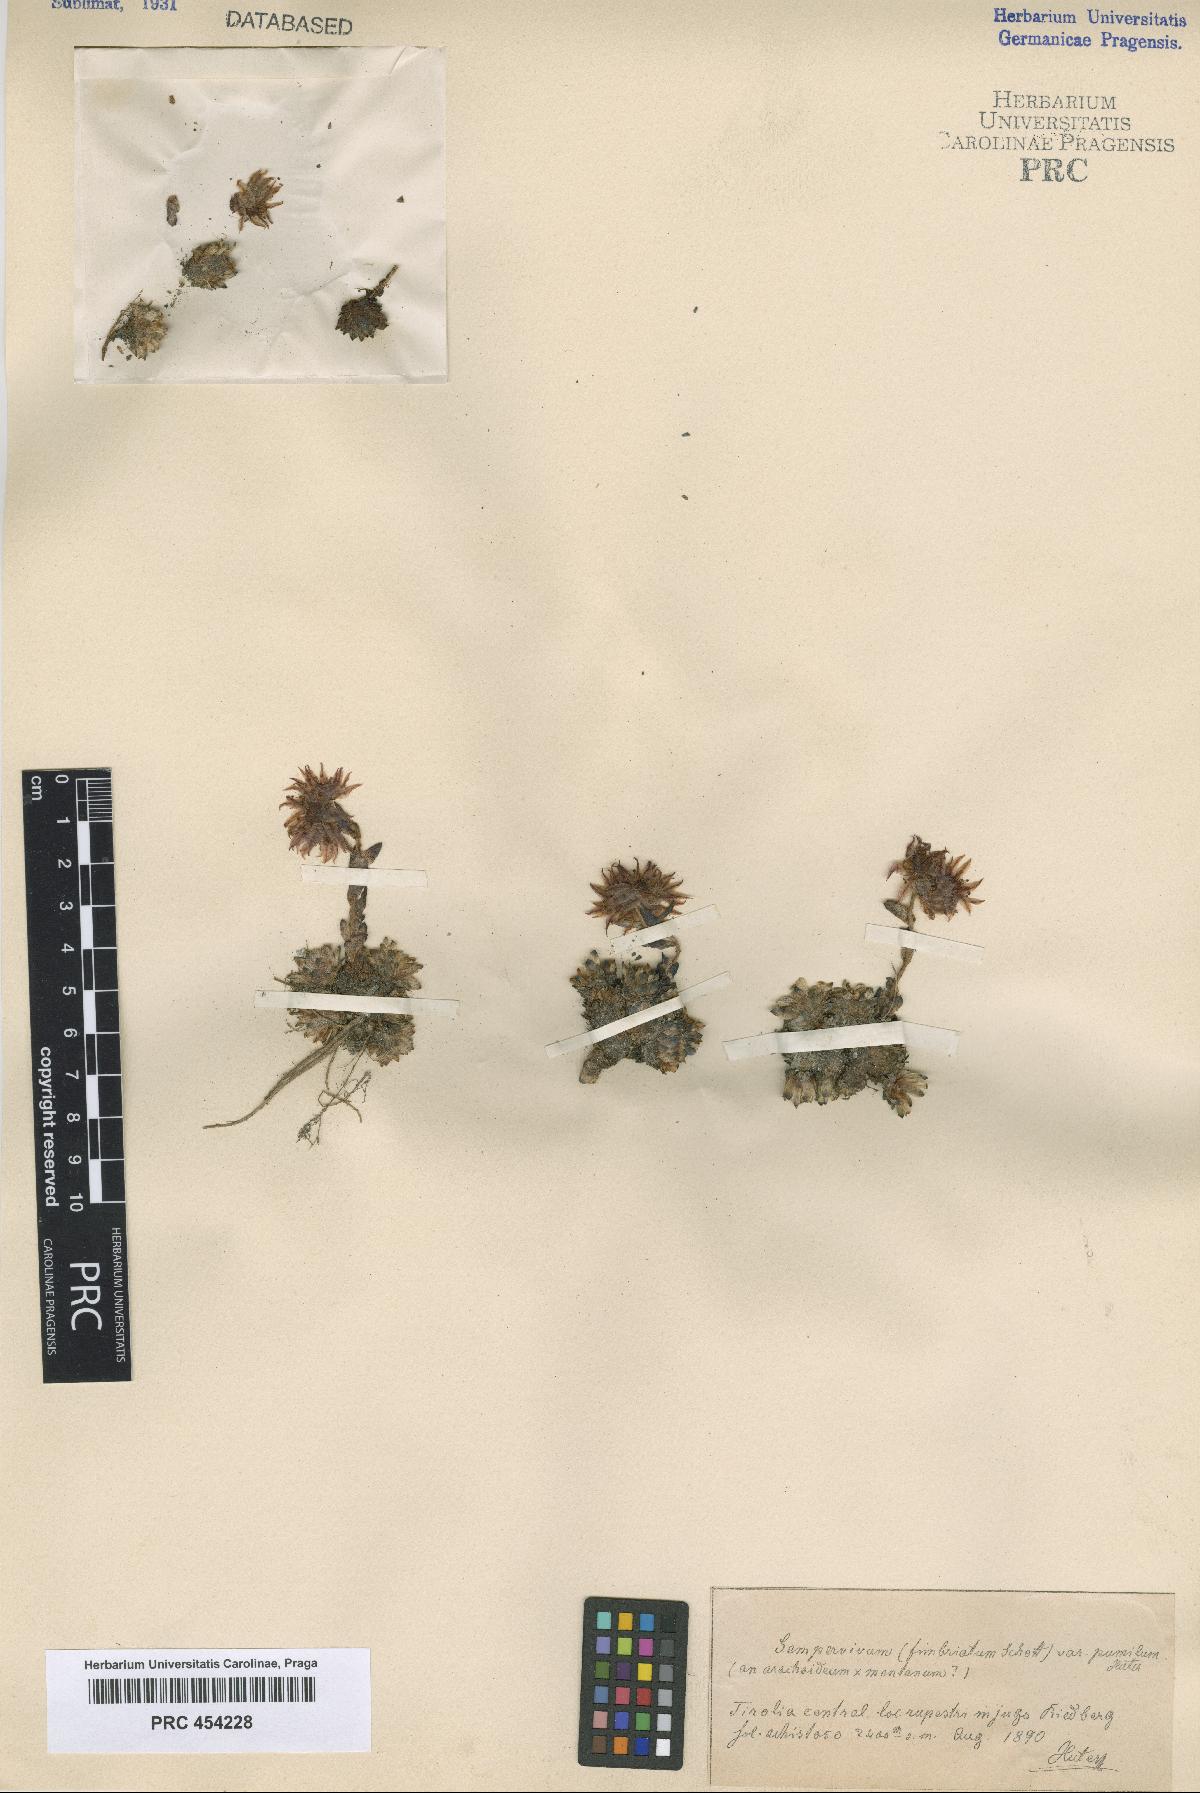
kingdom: Plantae
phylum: Tracheophyta
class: Magnoliopsida
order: Saxifragales
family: Crassulaceae
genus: Sempervivum
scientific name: Sempervivum fimbriatum
